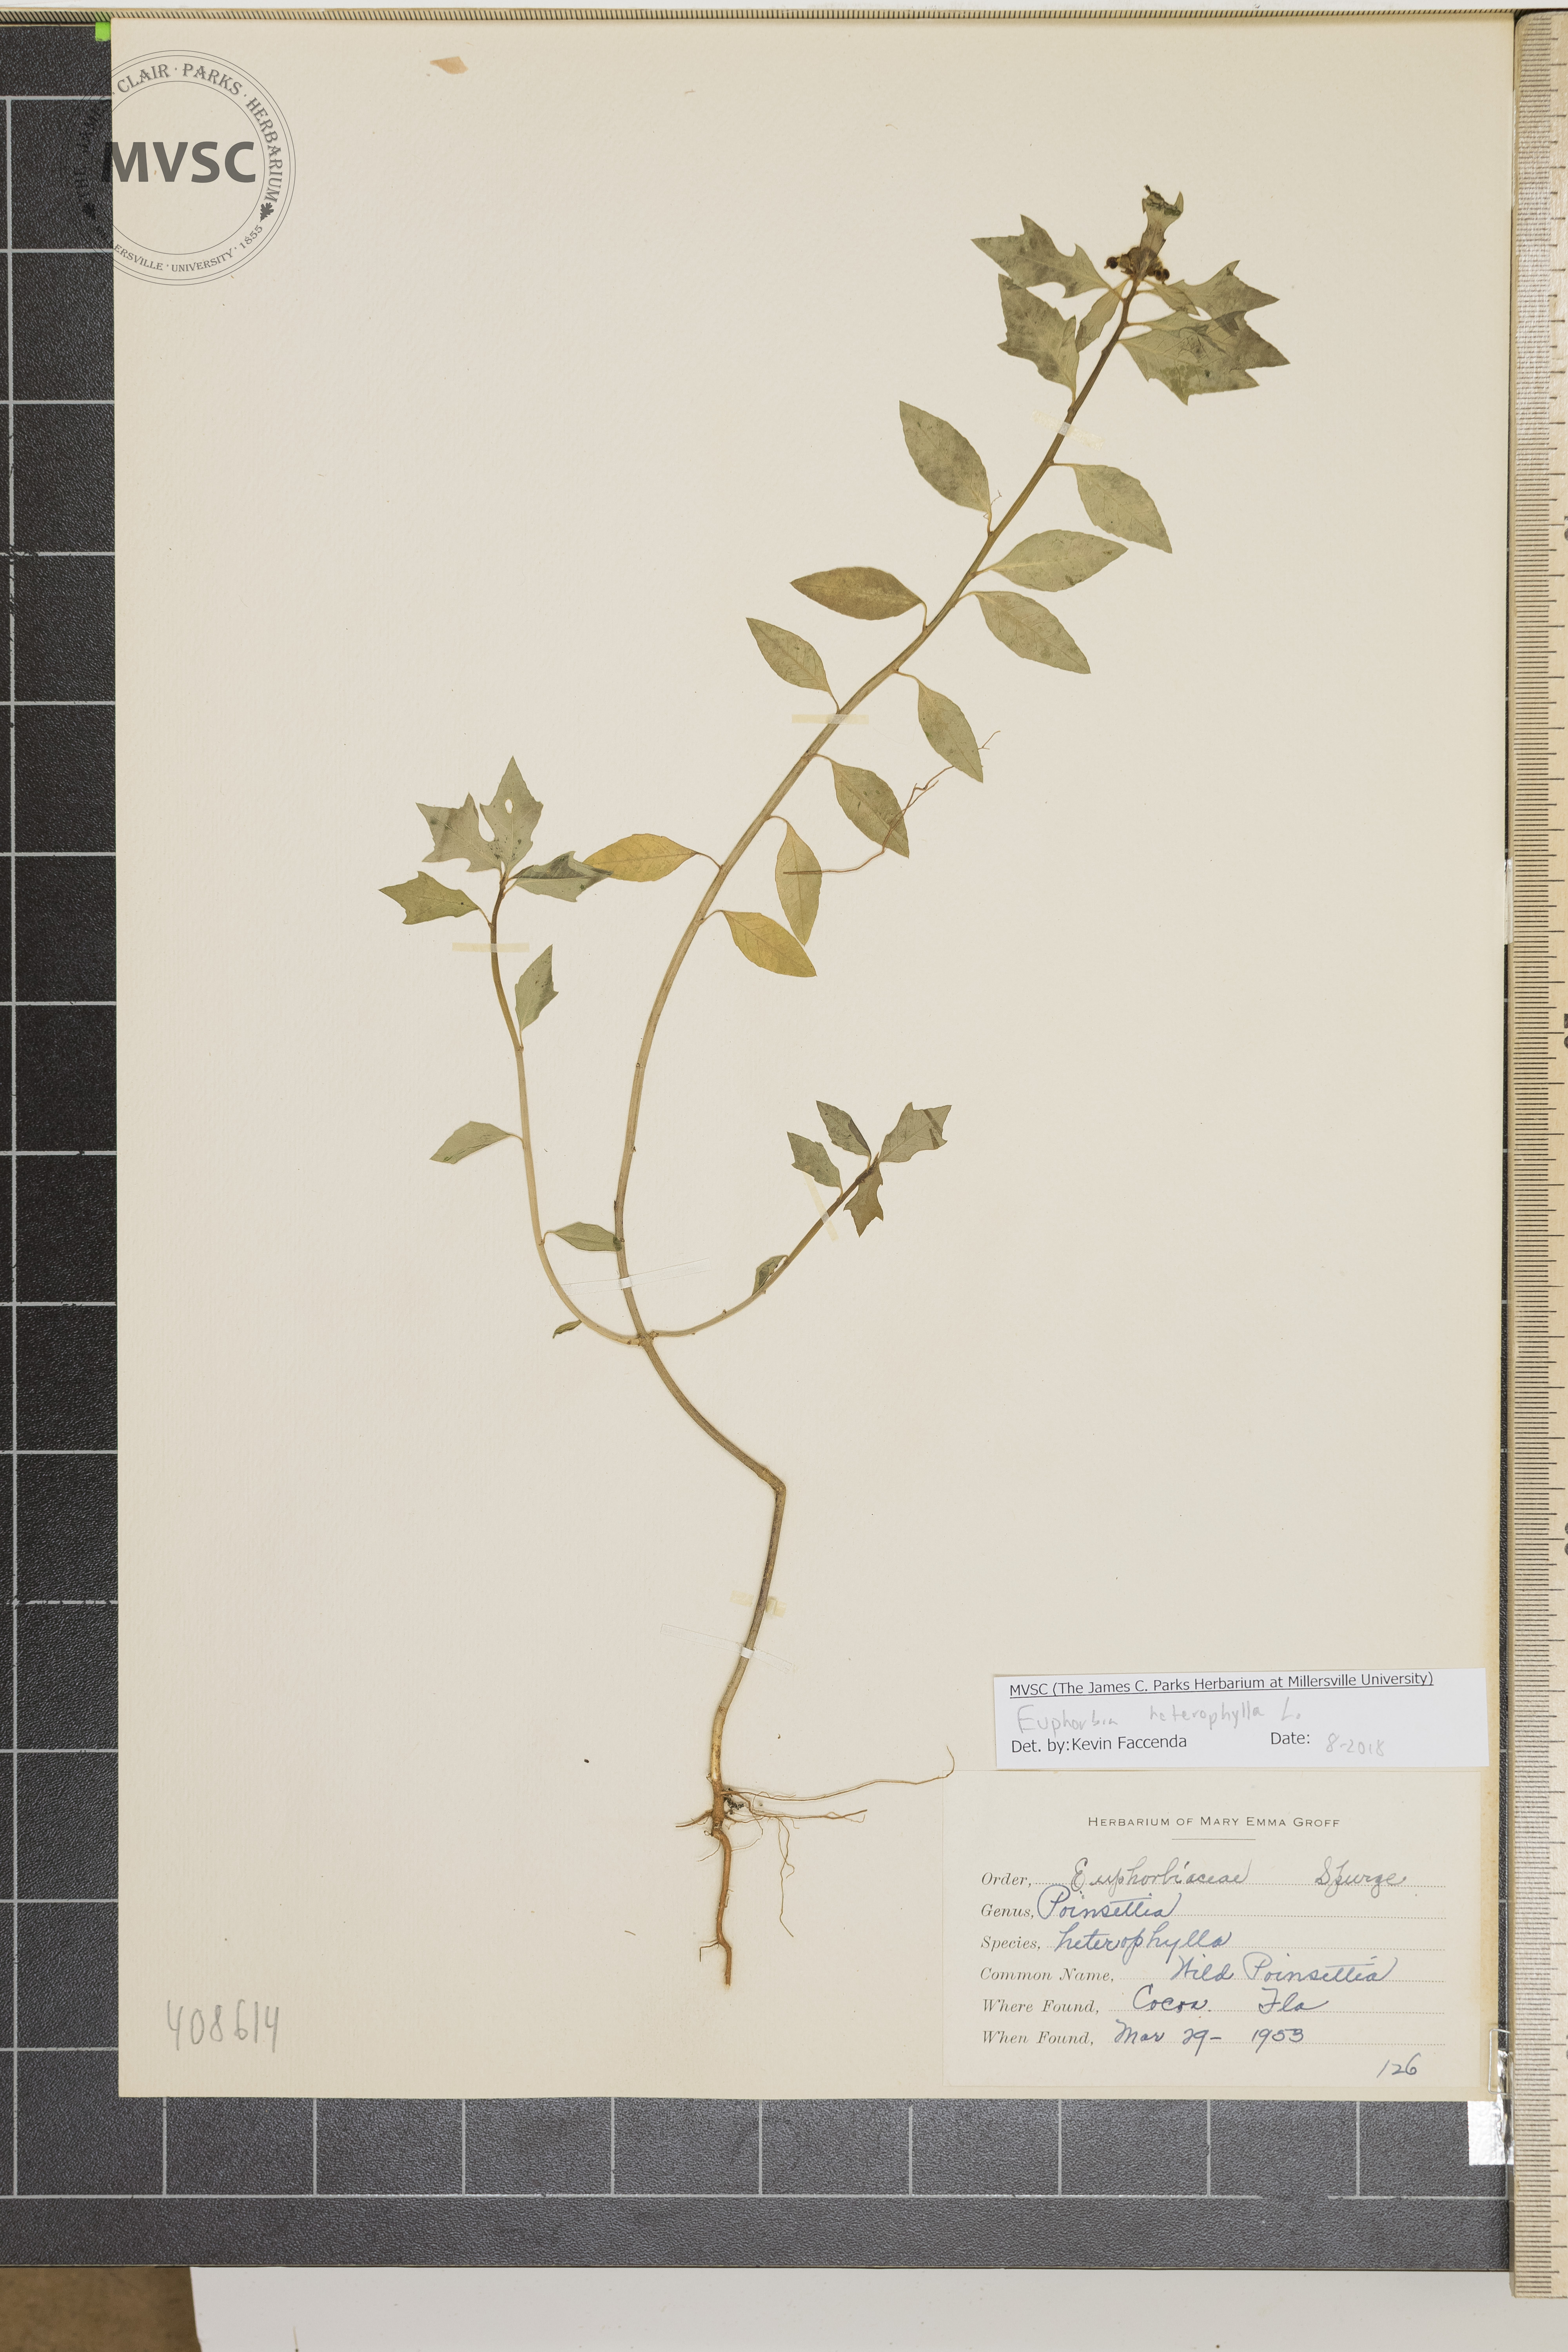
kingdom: Plantae
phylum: Tracheophyta
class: Magnoliopsida
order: Malpighiales
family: Euphorbiaceae
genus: Euphorbia
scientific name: Euphorbia heterophylla
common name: Wild Poinsettia
